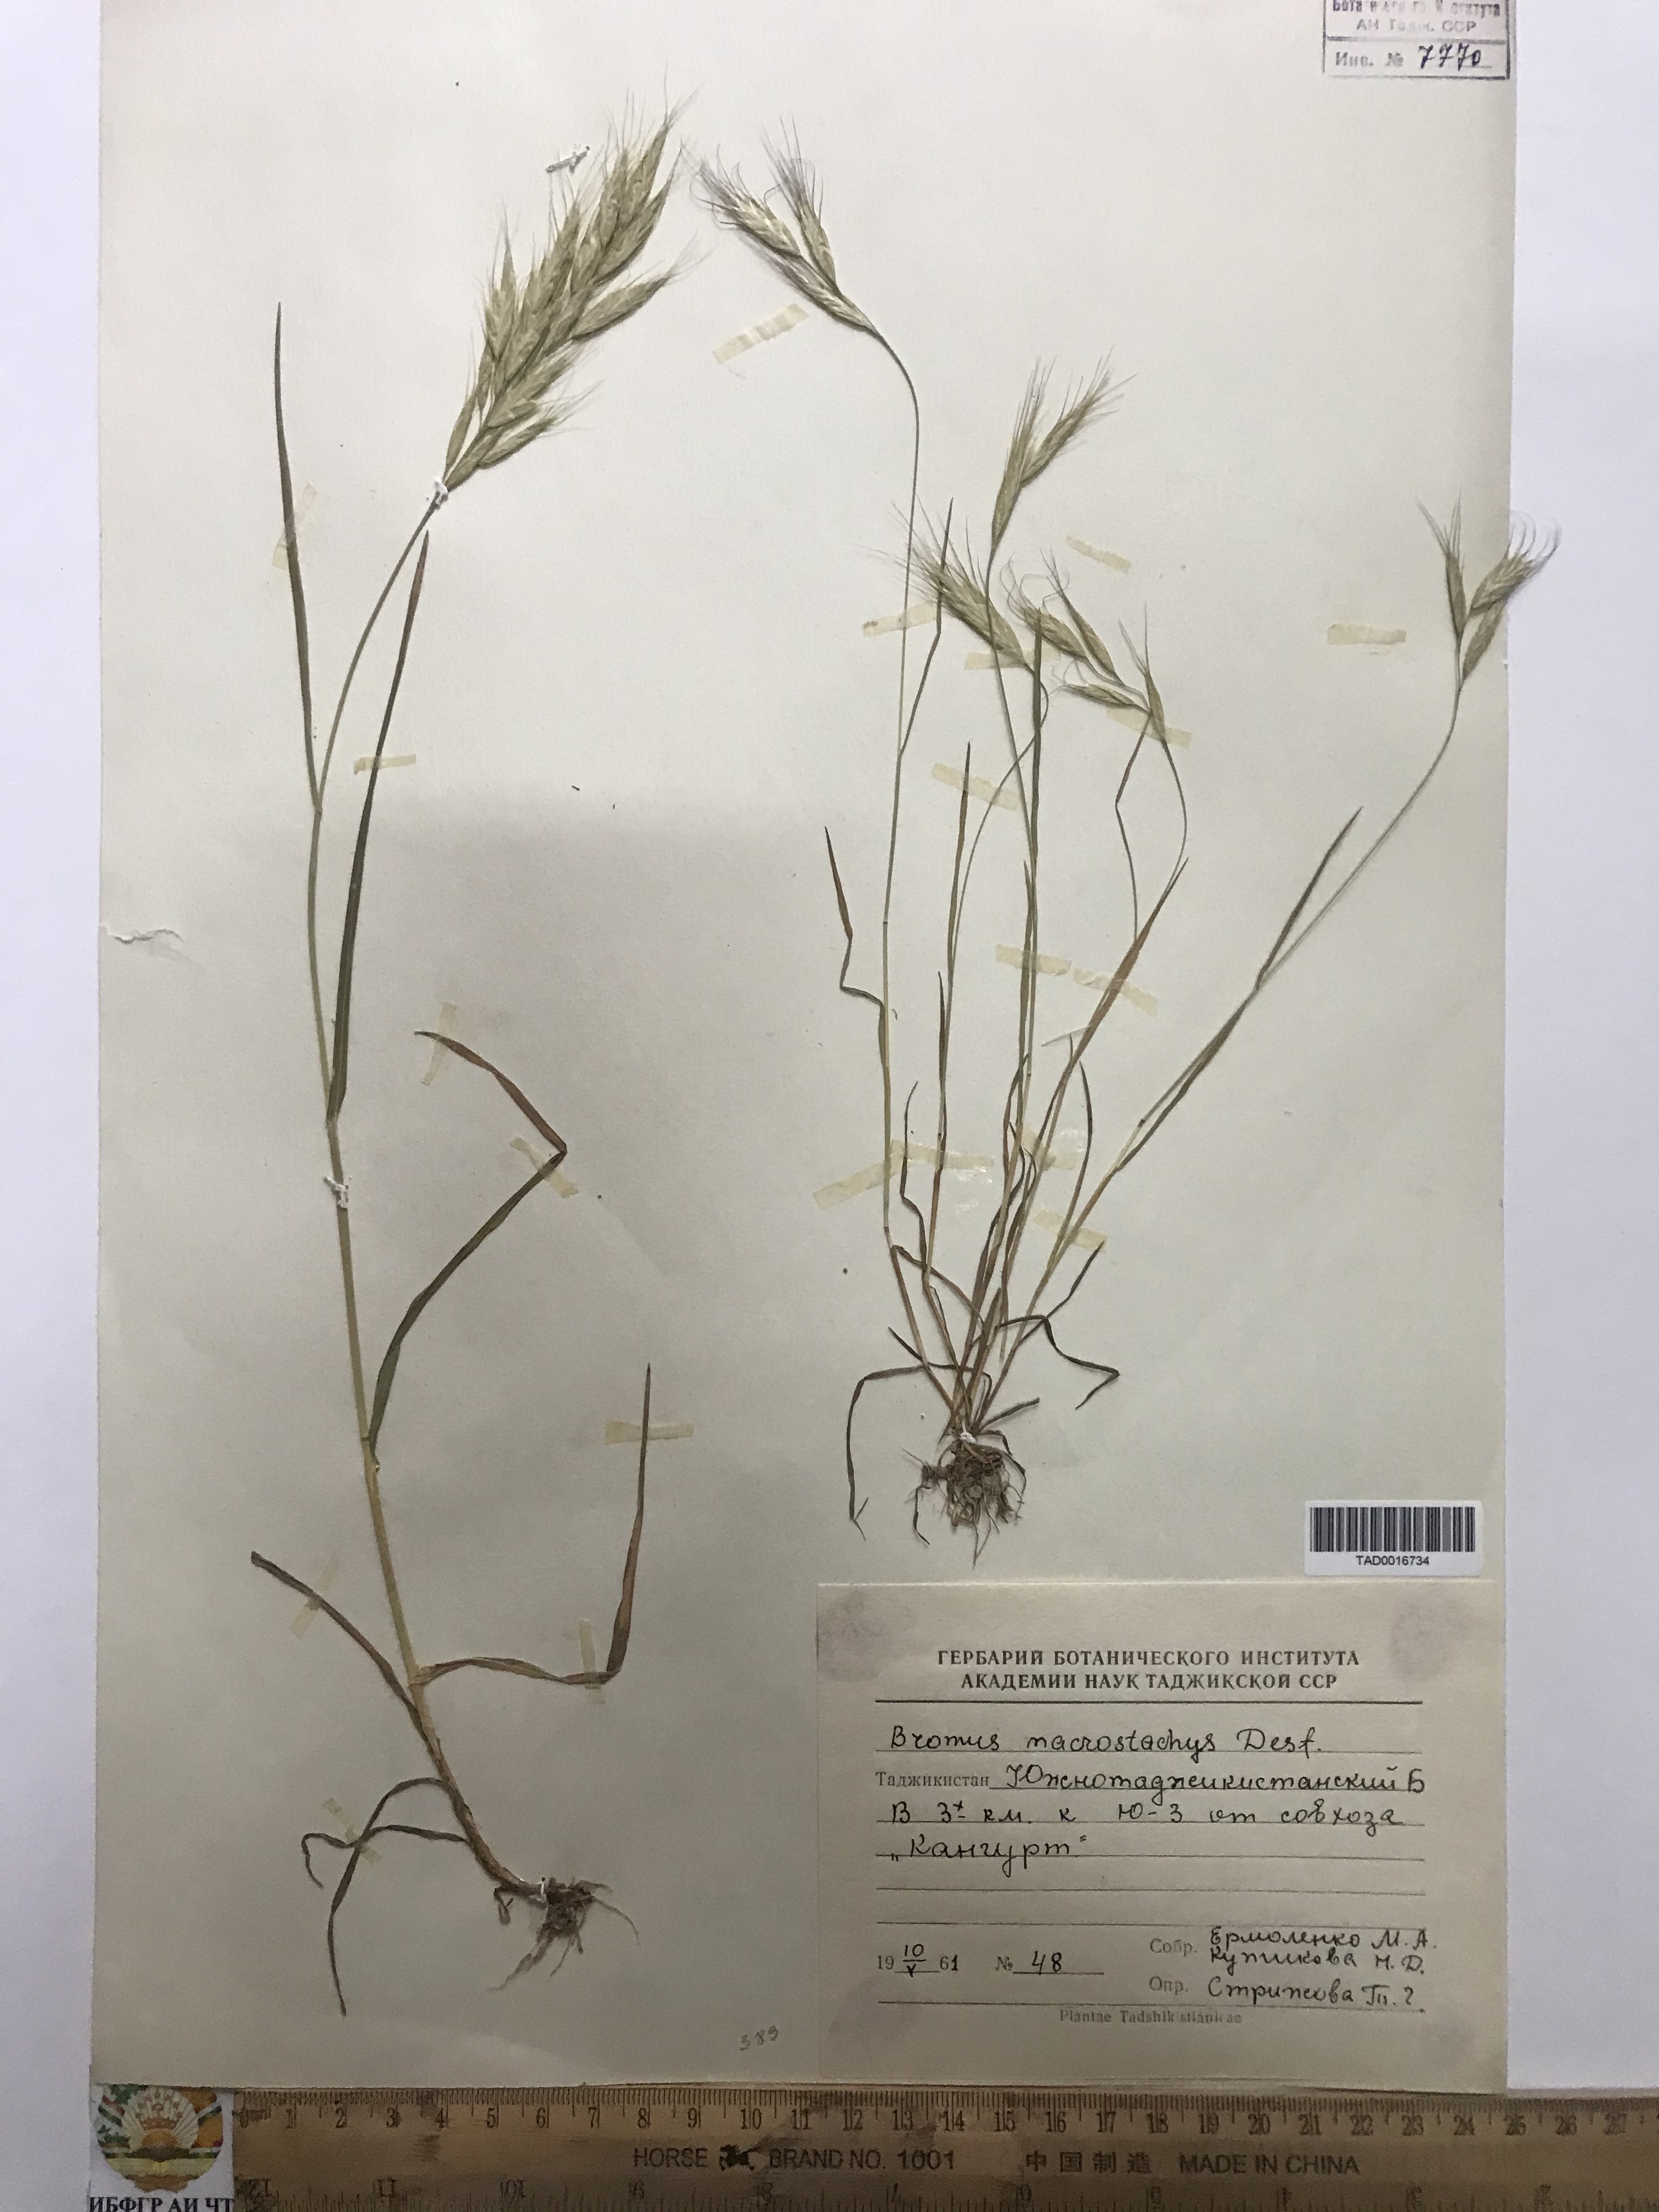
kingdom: Plantae
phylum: Tracheophyta
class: Liliopsida
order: Poales
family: Poaceae
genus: Bromus
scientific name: Bromus lanceolatus
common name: Mediterranean brome
